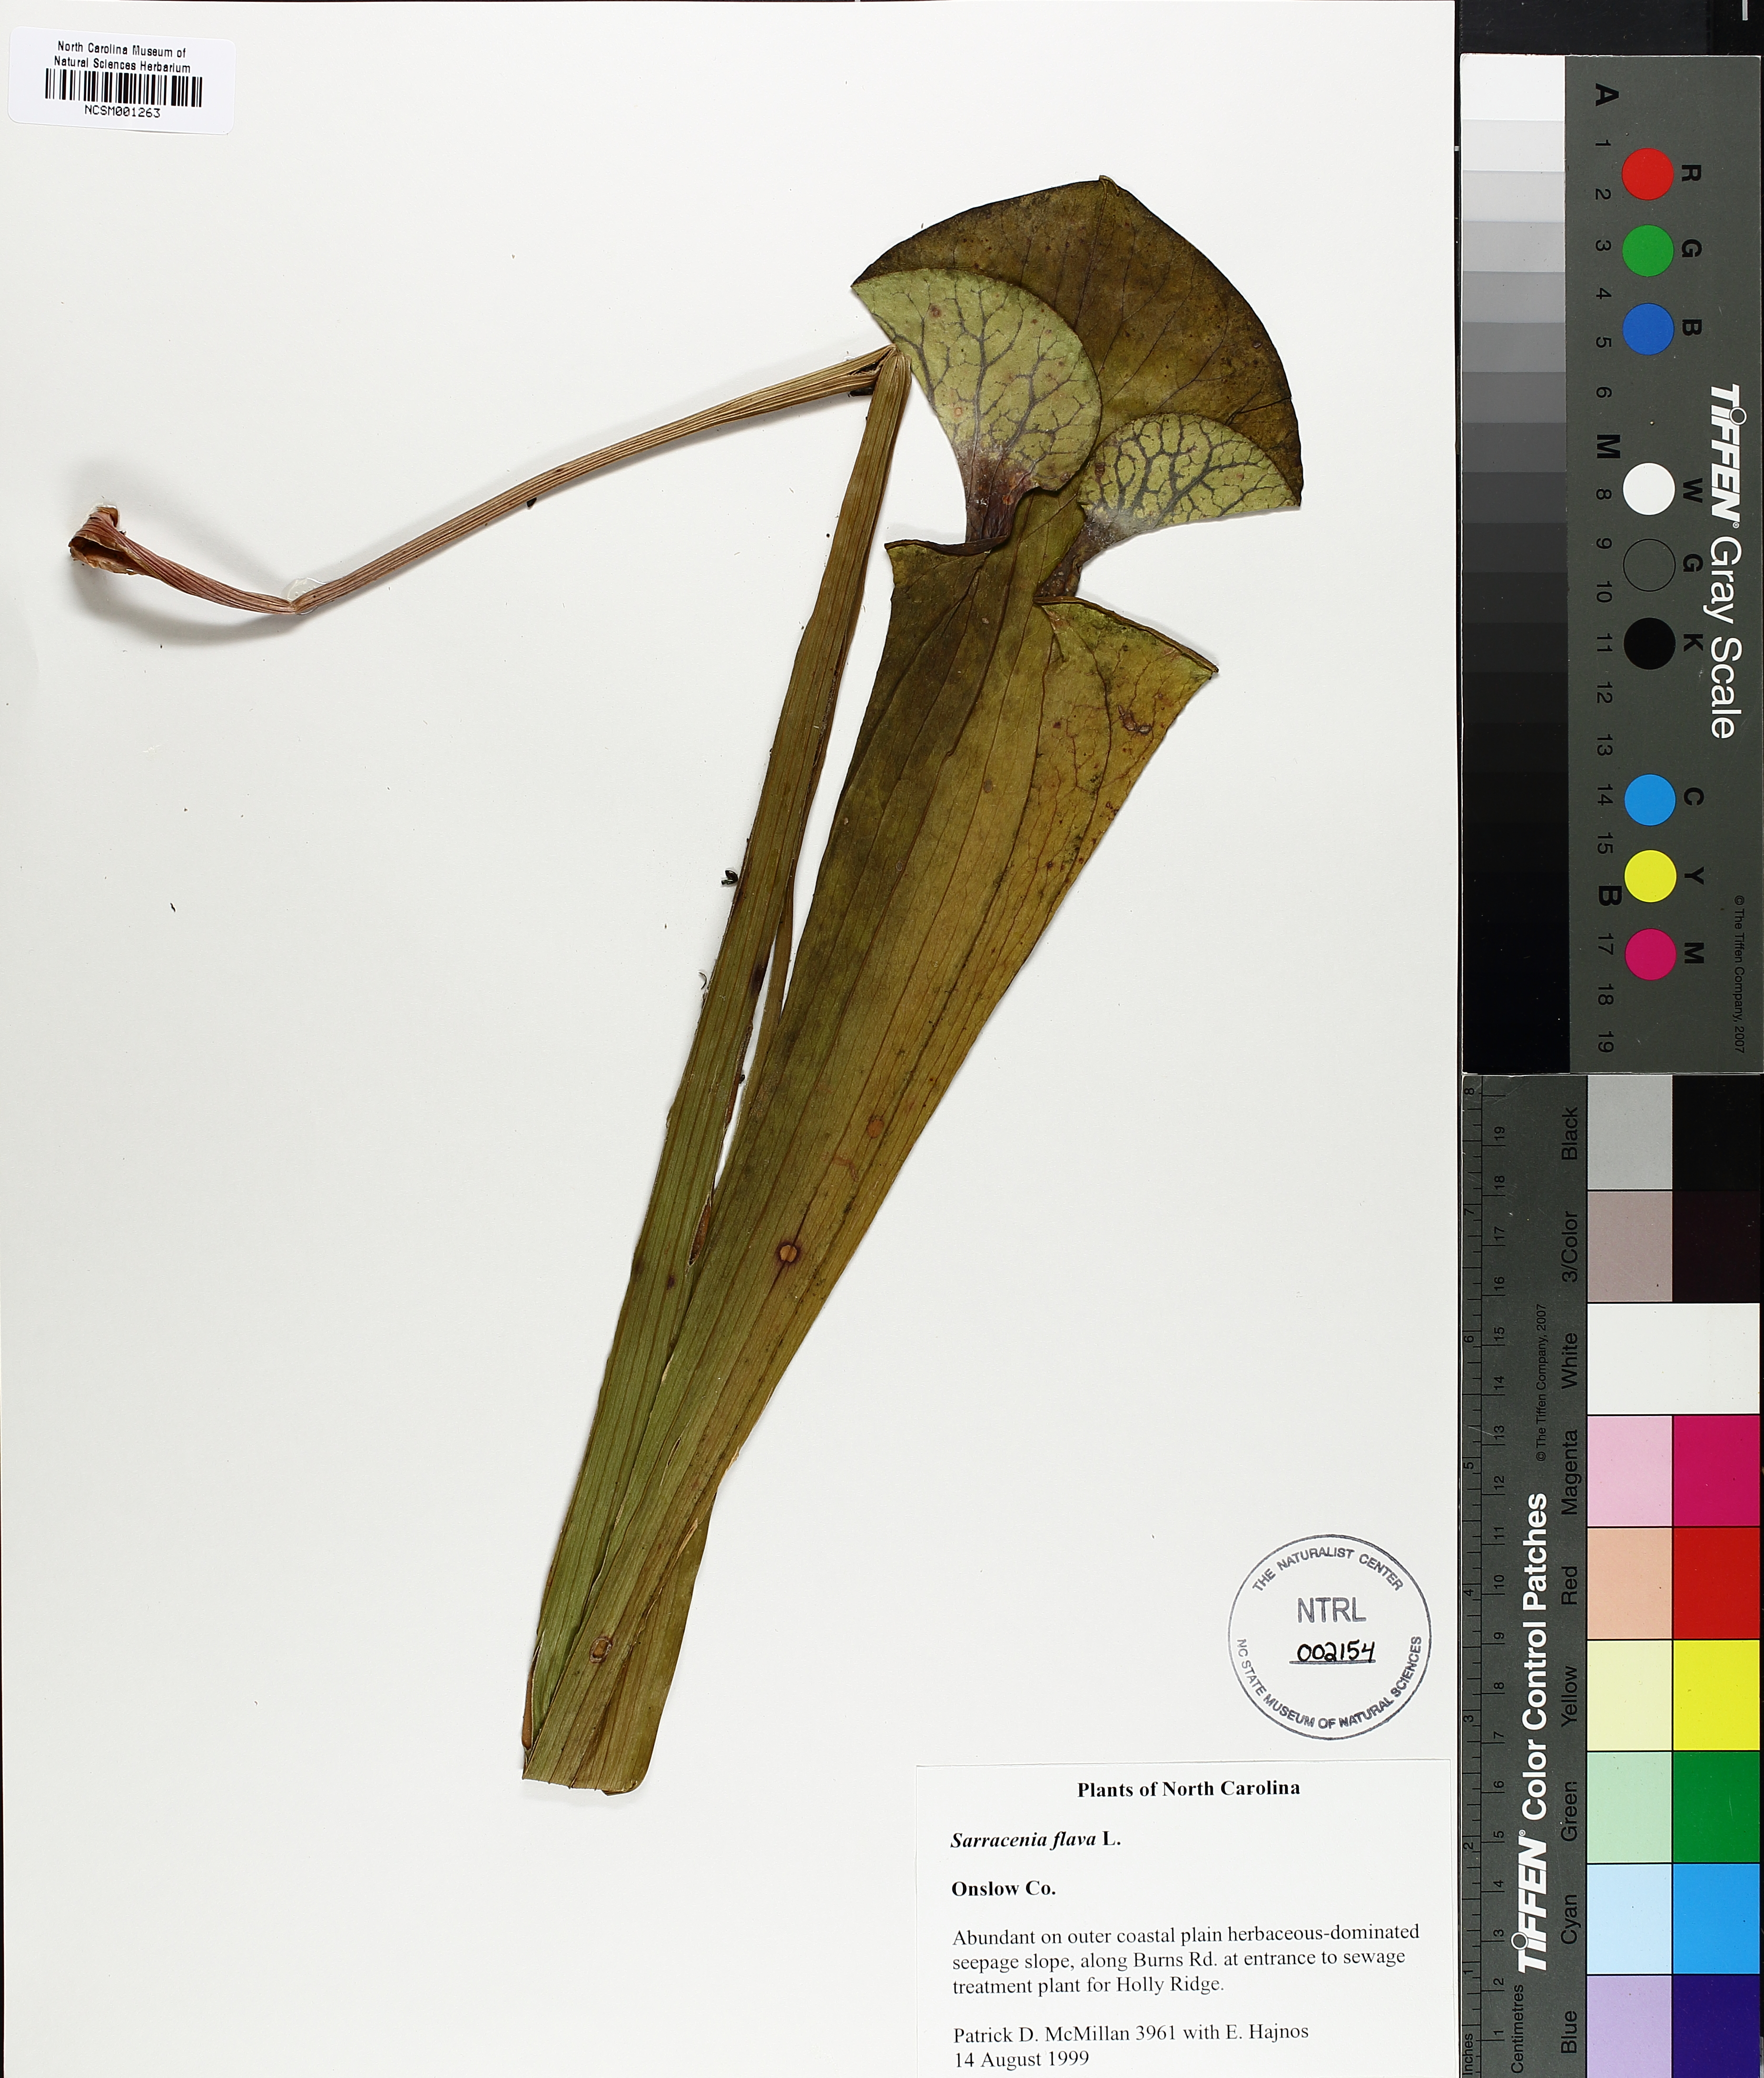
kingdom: Plantae
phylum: Tracheophyta
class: Magnoliopsida
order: Ericales
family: Sarraceniaceae
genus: Sarracenia
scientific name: Sarracenia flava
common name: Trumpets
